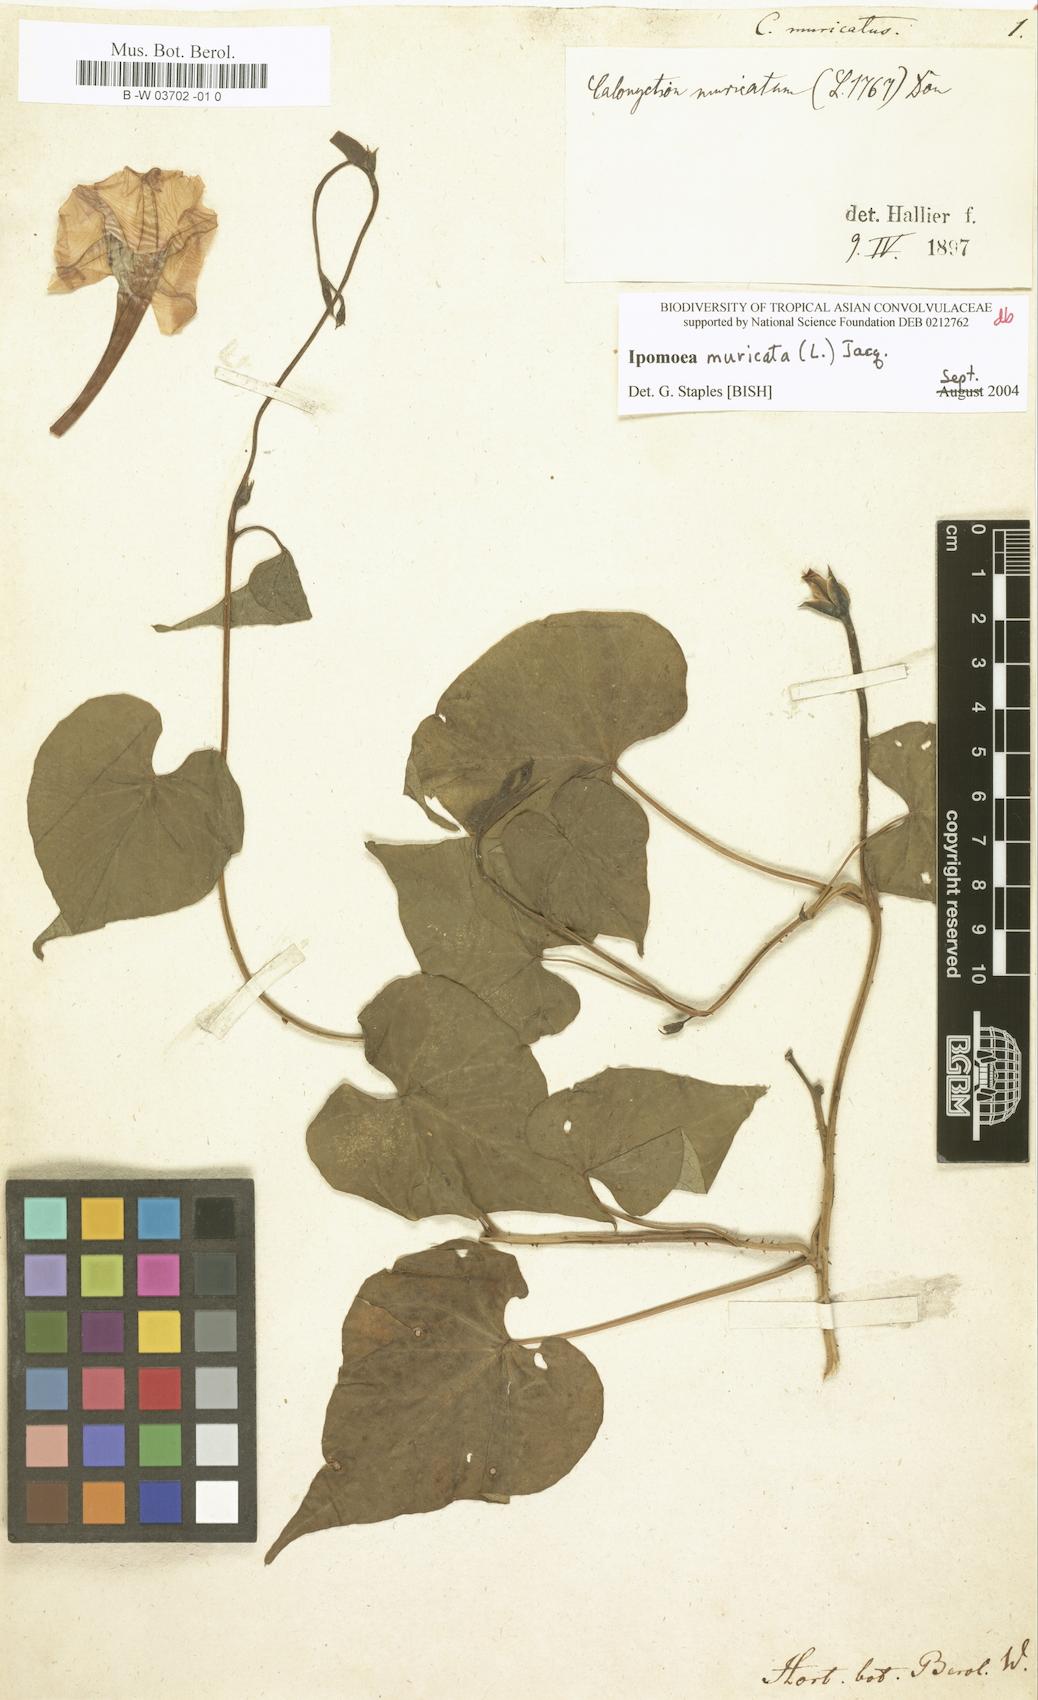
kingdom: Plantae
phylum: Tracheophyta
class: Magnoliopsida
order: Solanales
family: Convolvulaceae
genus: Ipomoea
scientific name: Ipomoea
